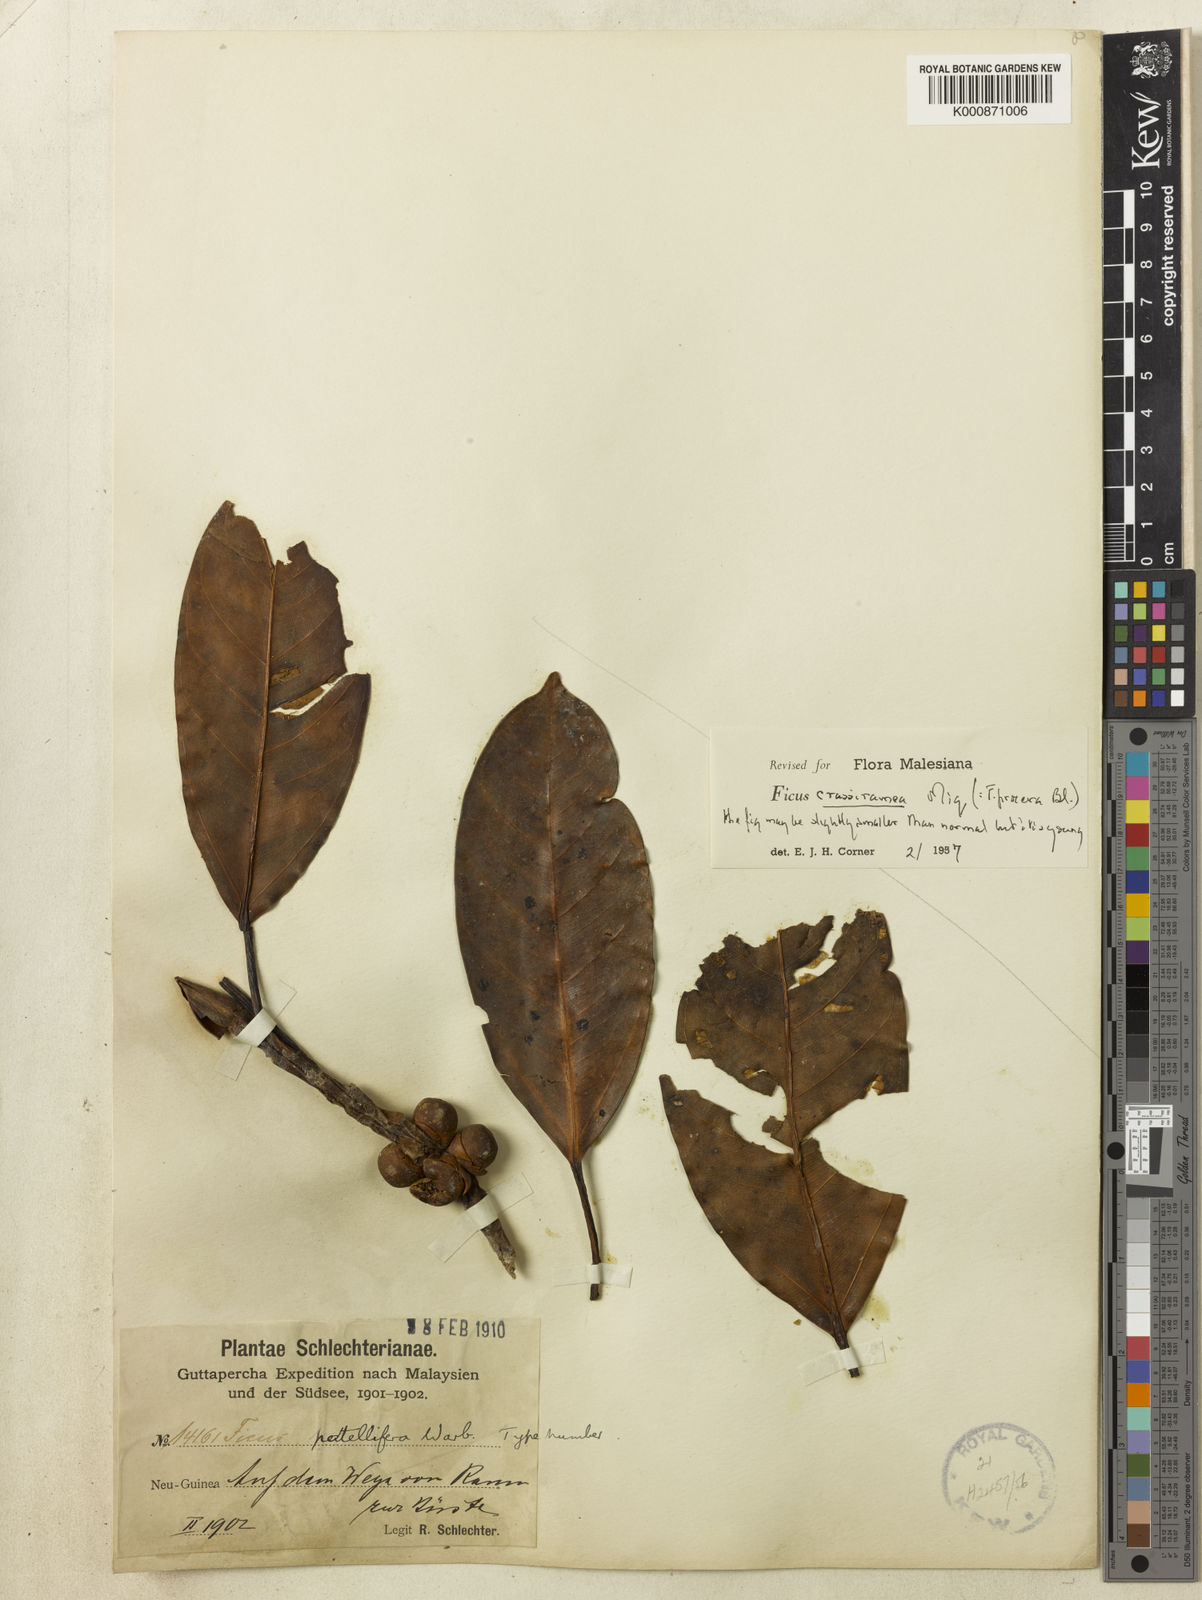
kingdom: Plantae
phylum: Tracheophyta
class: Magnoliopsida
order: Rosales
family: Moraceae
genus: Ficus
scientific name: Ficus crassiramea
